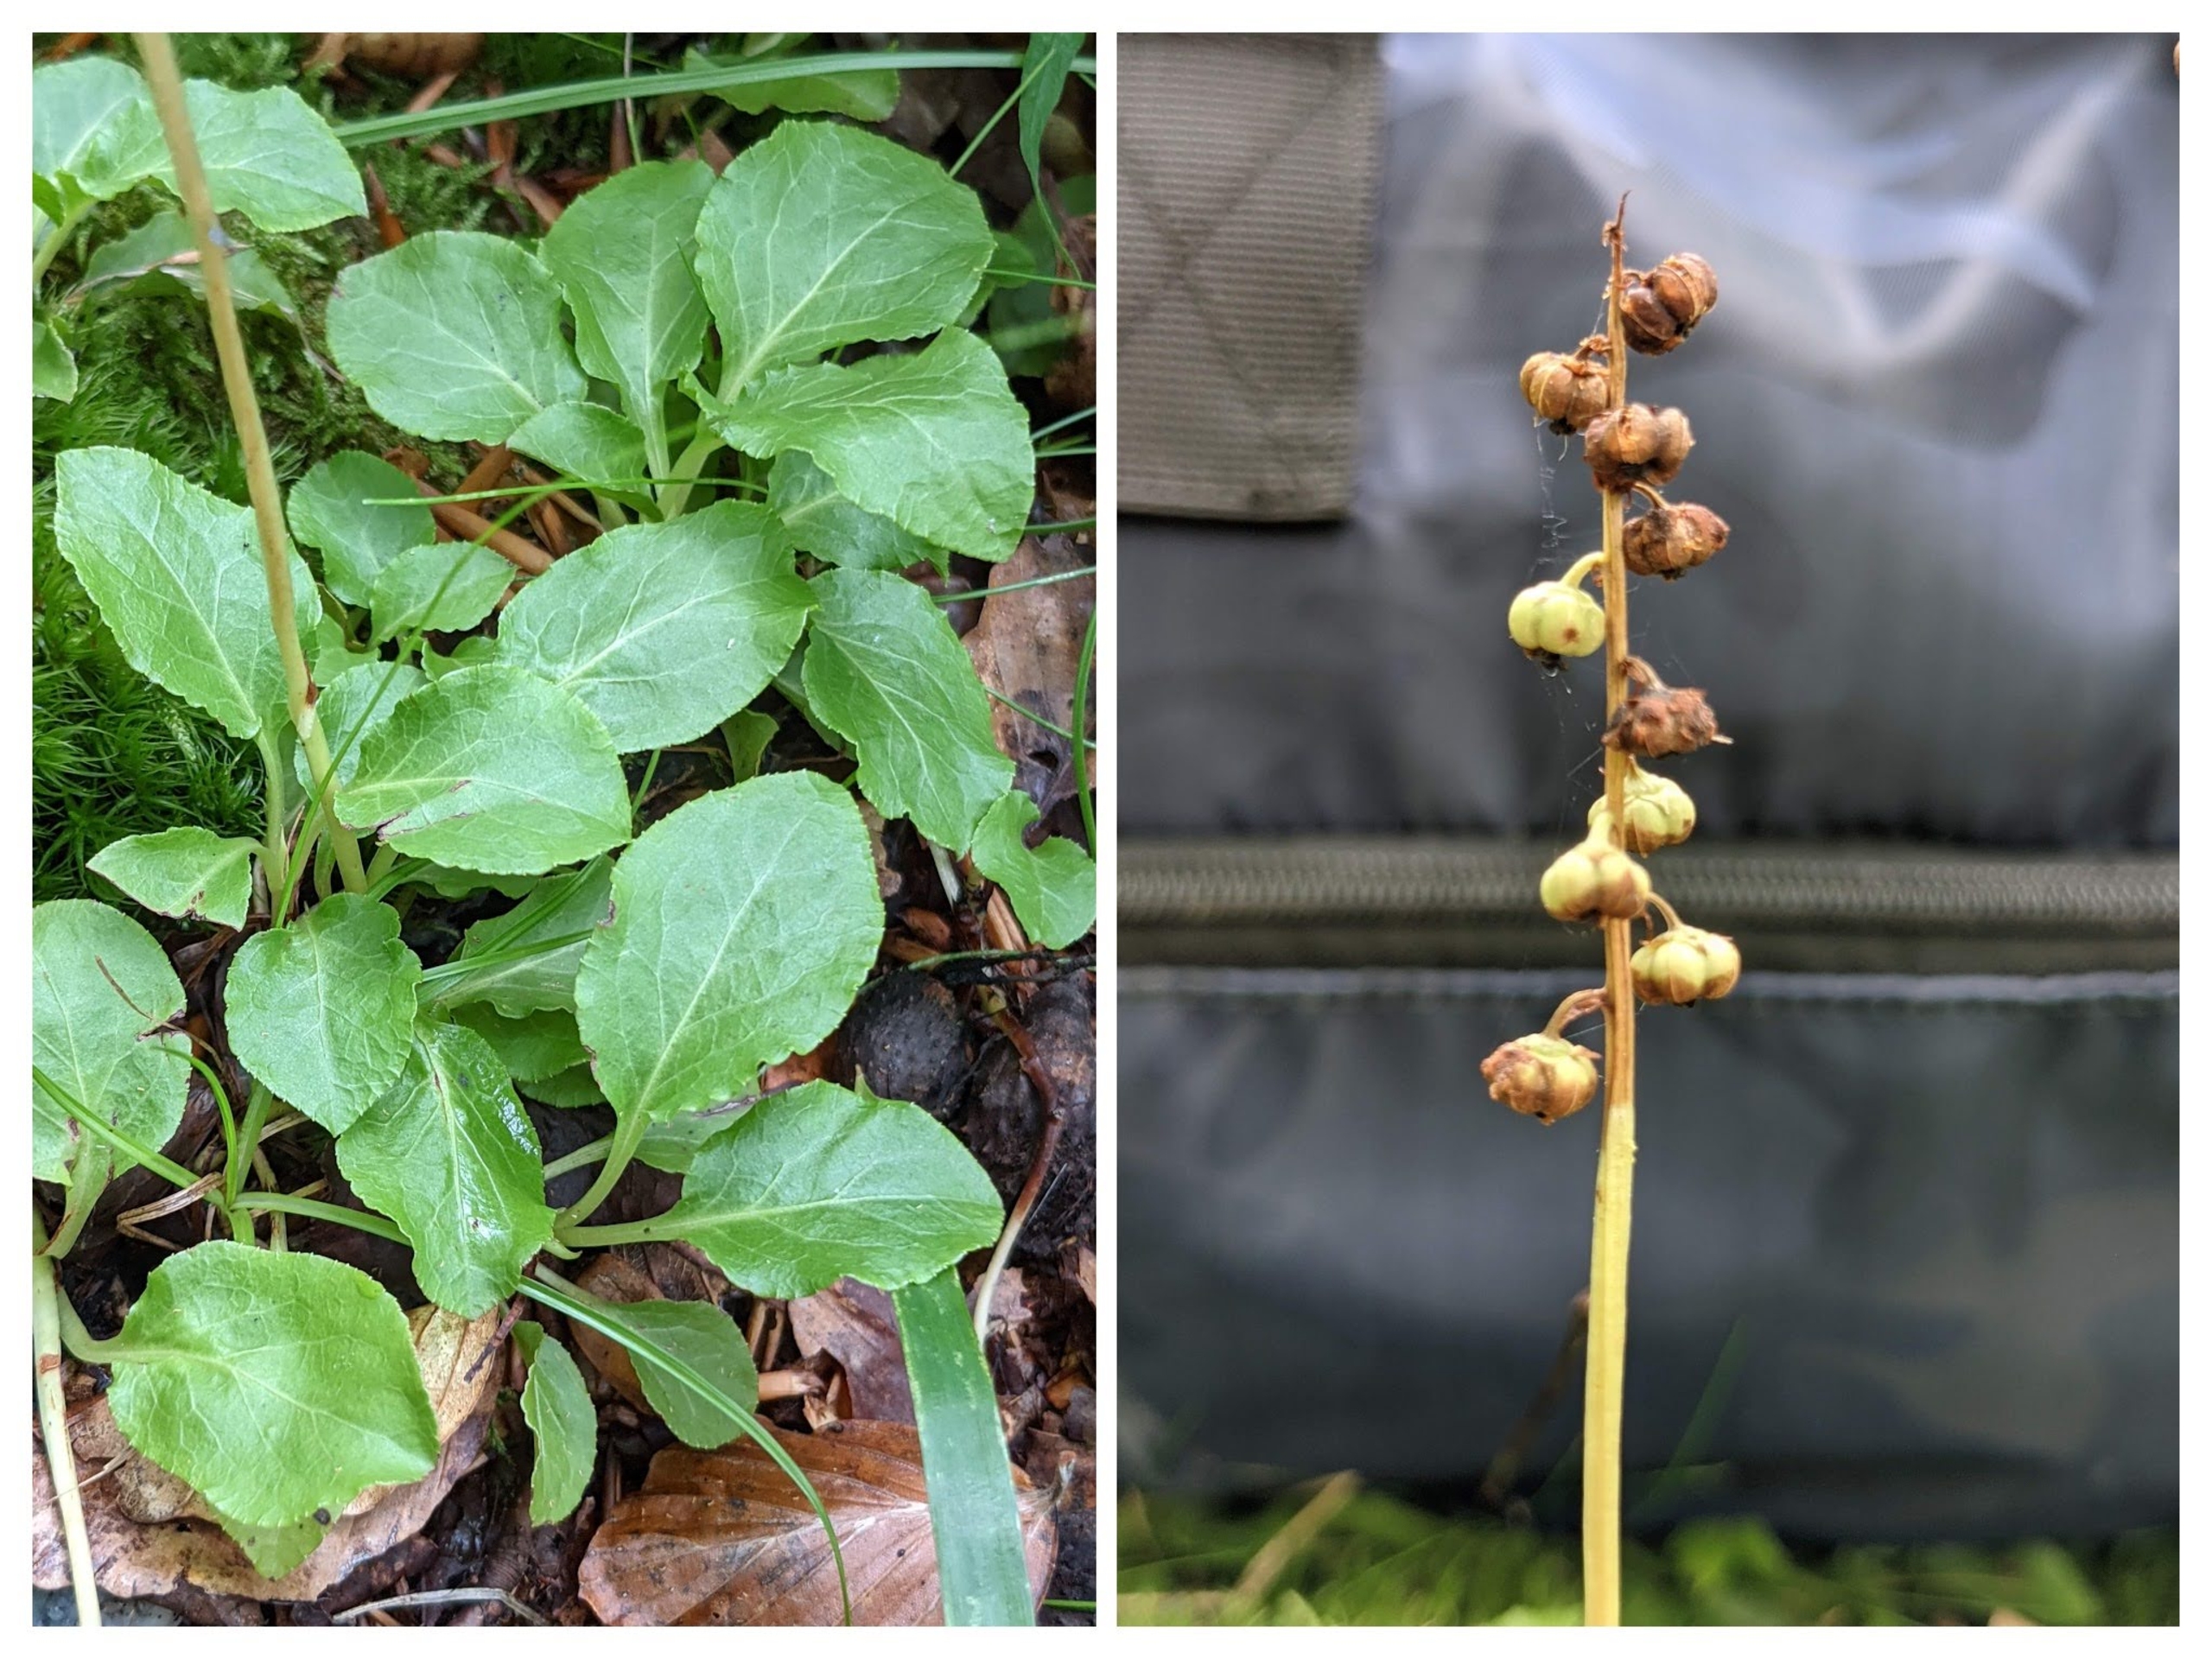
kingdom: Plantae
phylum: Tracheophyta
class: Magnoliopsida
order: Ericales
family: Ericaceae
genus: Pyrola
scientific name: Pyrola minor
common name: Liden vintergrøn
